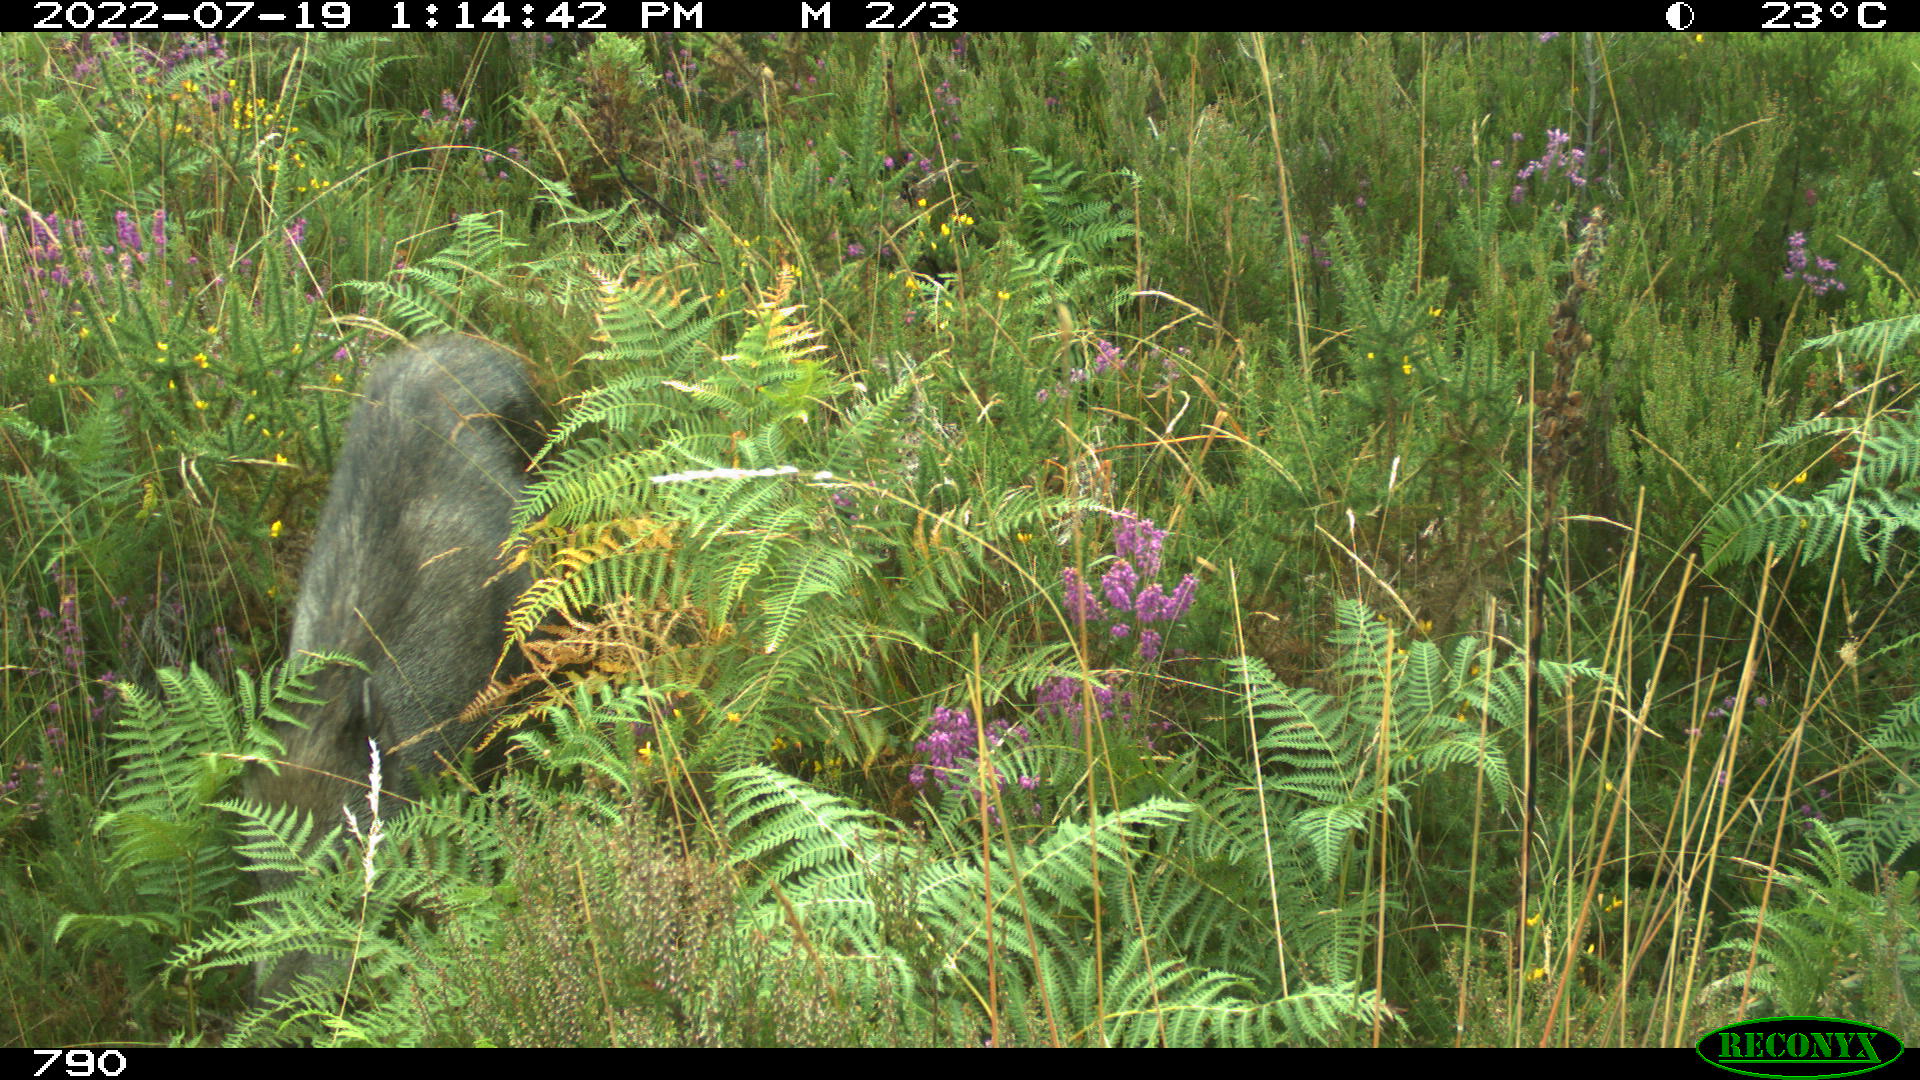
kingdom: Animalia
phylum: Chordata
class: Mammalia
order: Artiodactyla
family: Suidae
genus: Sus
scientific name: Sus scrofa
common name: Wild boar
